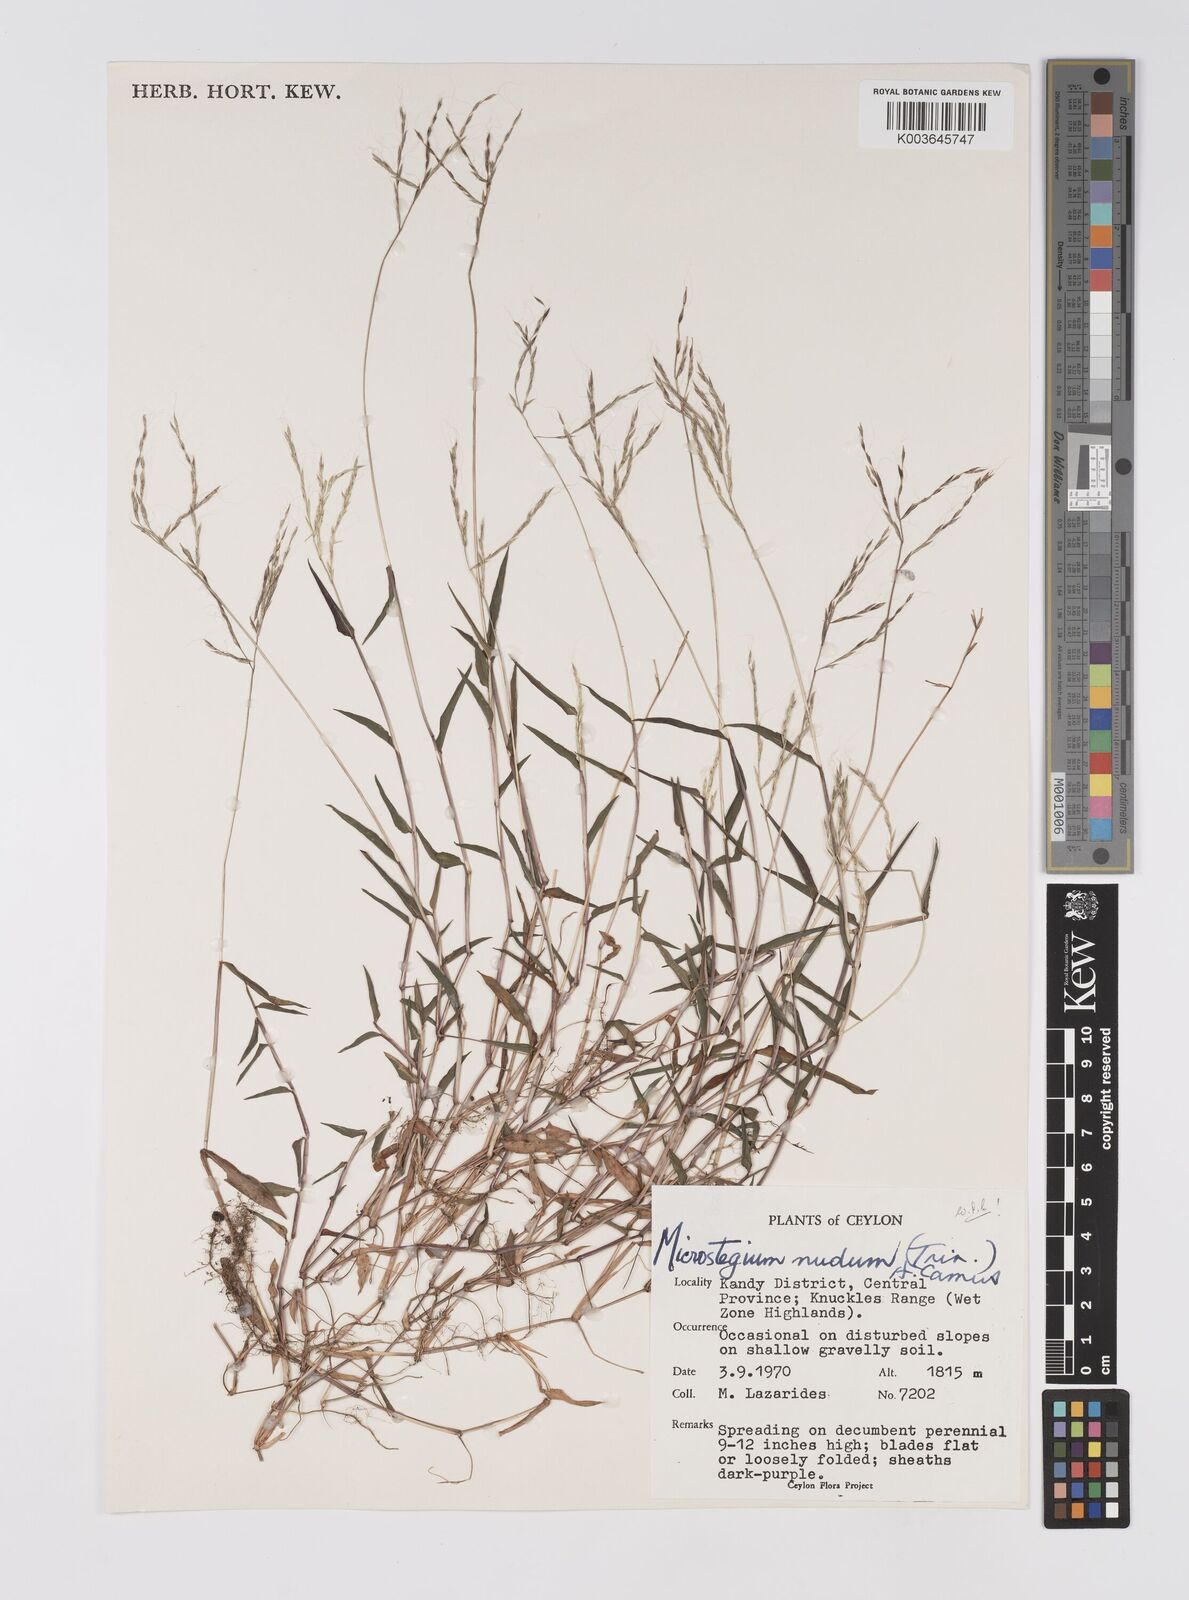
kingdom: Plantae
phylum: Tracheophyta
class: Liliopsida
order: Poales
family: Poaceae
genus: Microstegium
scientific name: Microstegium nudum
